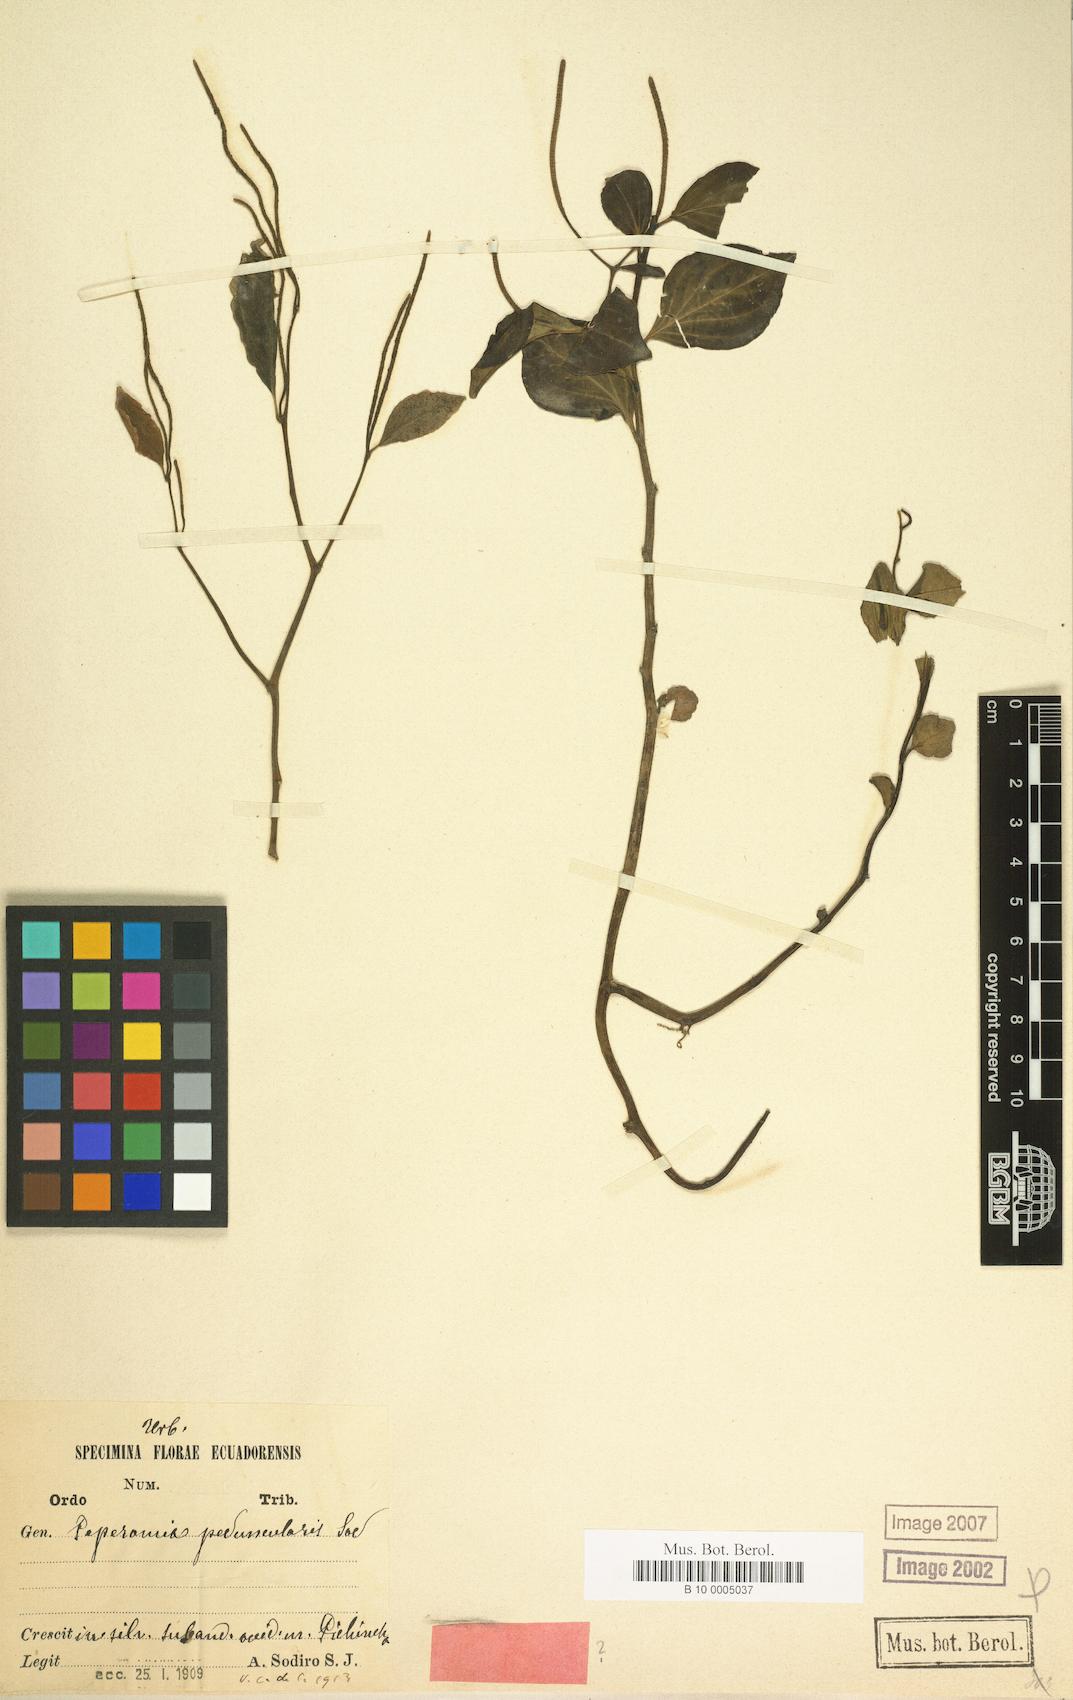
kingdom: Plantae
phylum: Tracheophyta
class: Magnoliopsida
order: Piperales
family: Piperaceae
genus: Peperomia
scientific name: Peperomia bicolor
